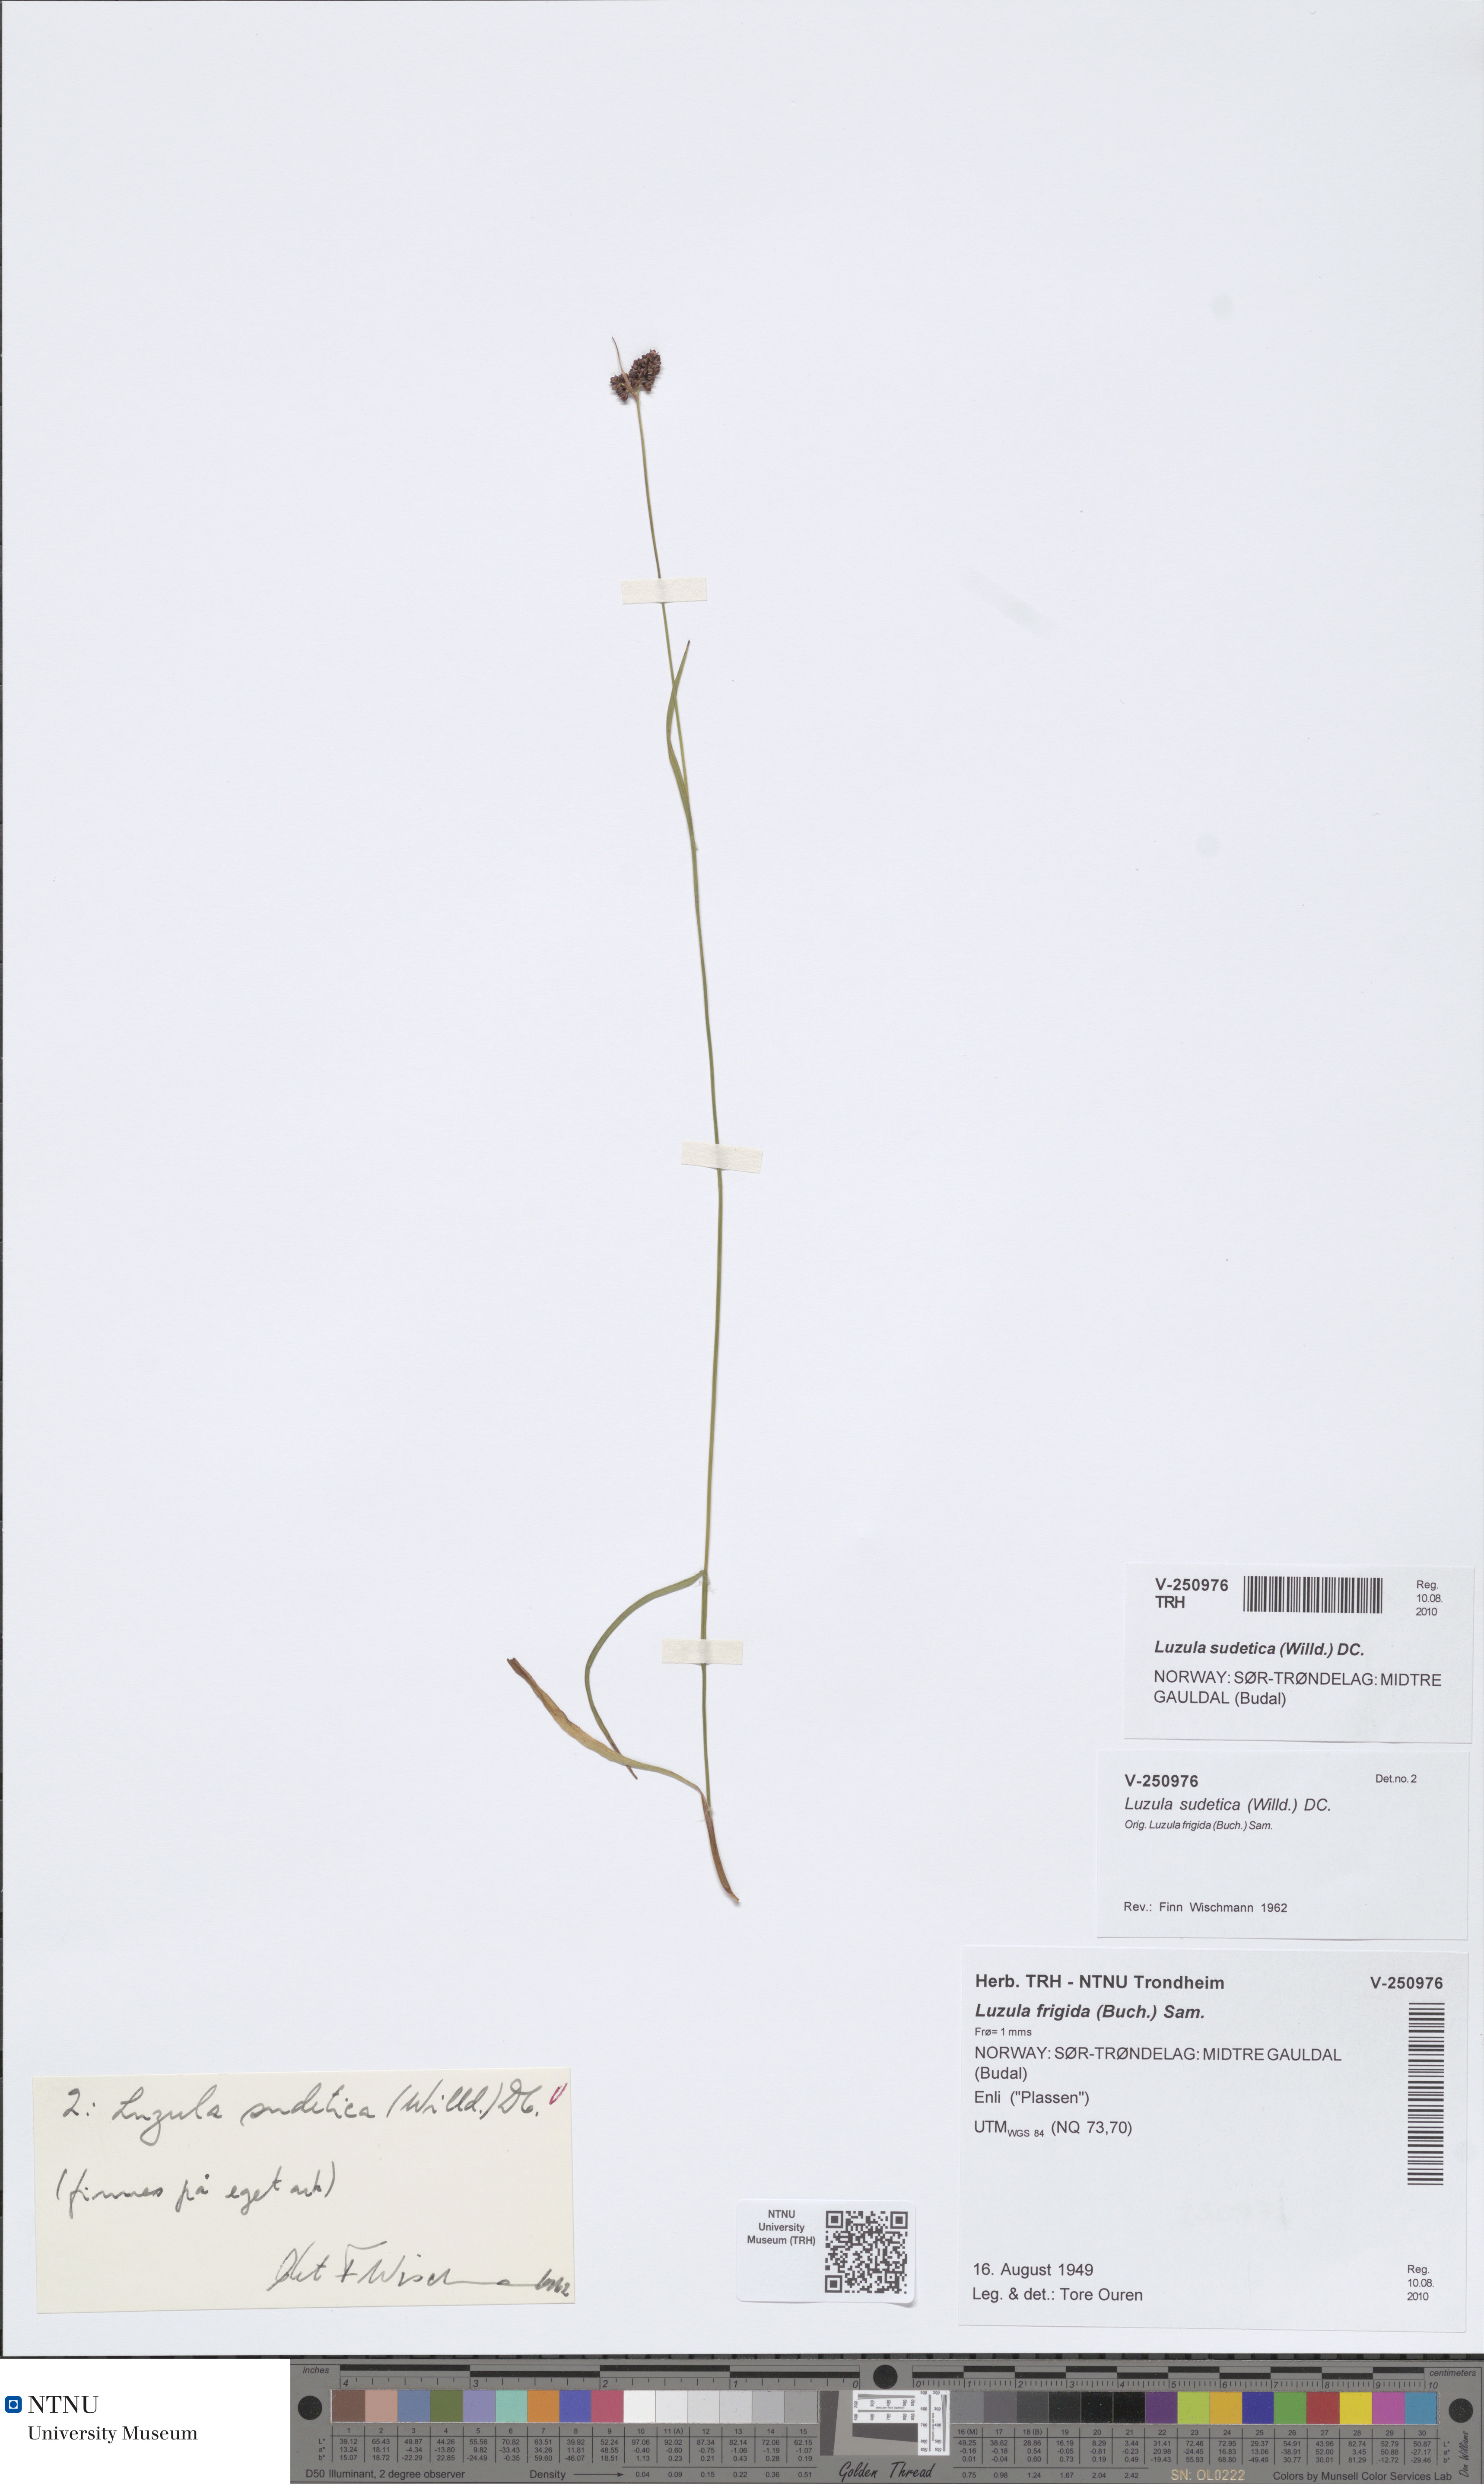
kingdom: Plantae
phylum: Tracheophyta
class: Liliopsida
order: Poales
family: Juncaceae
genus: Luzula
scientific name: Luzula sudetica
